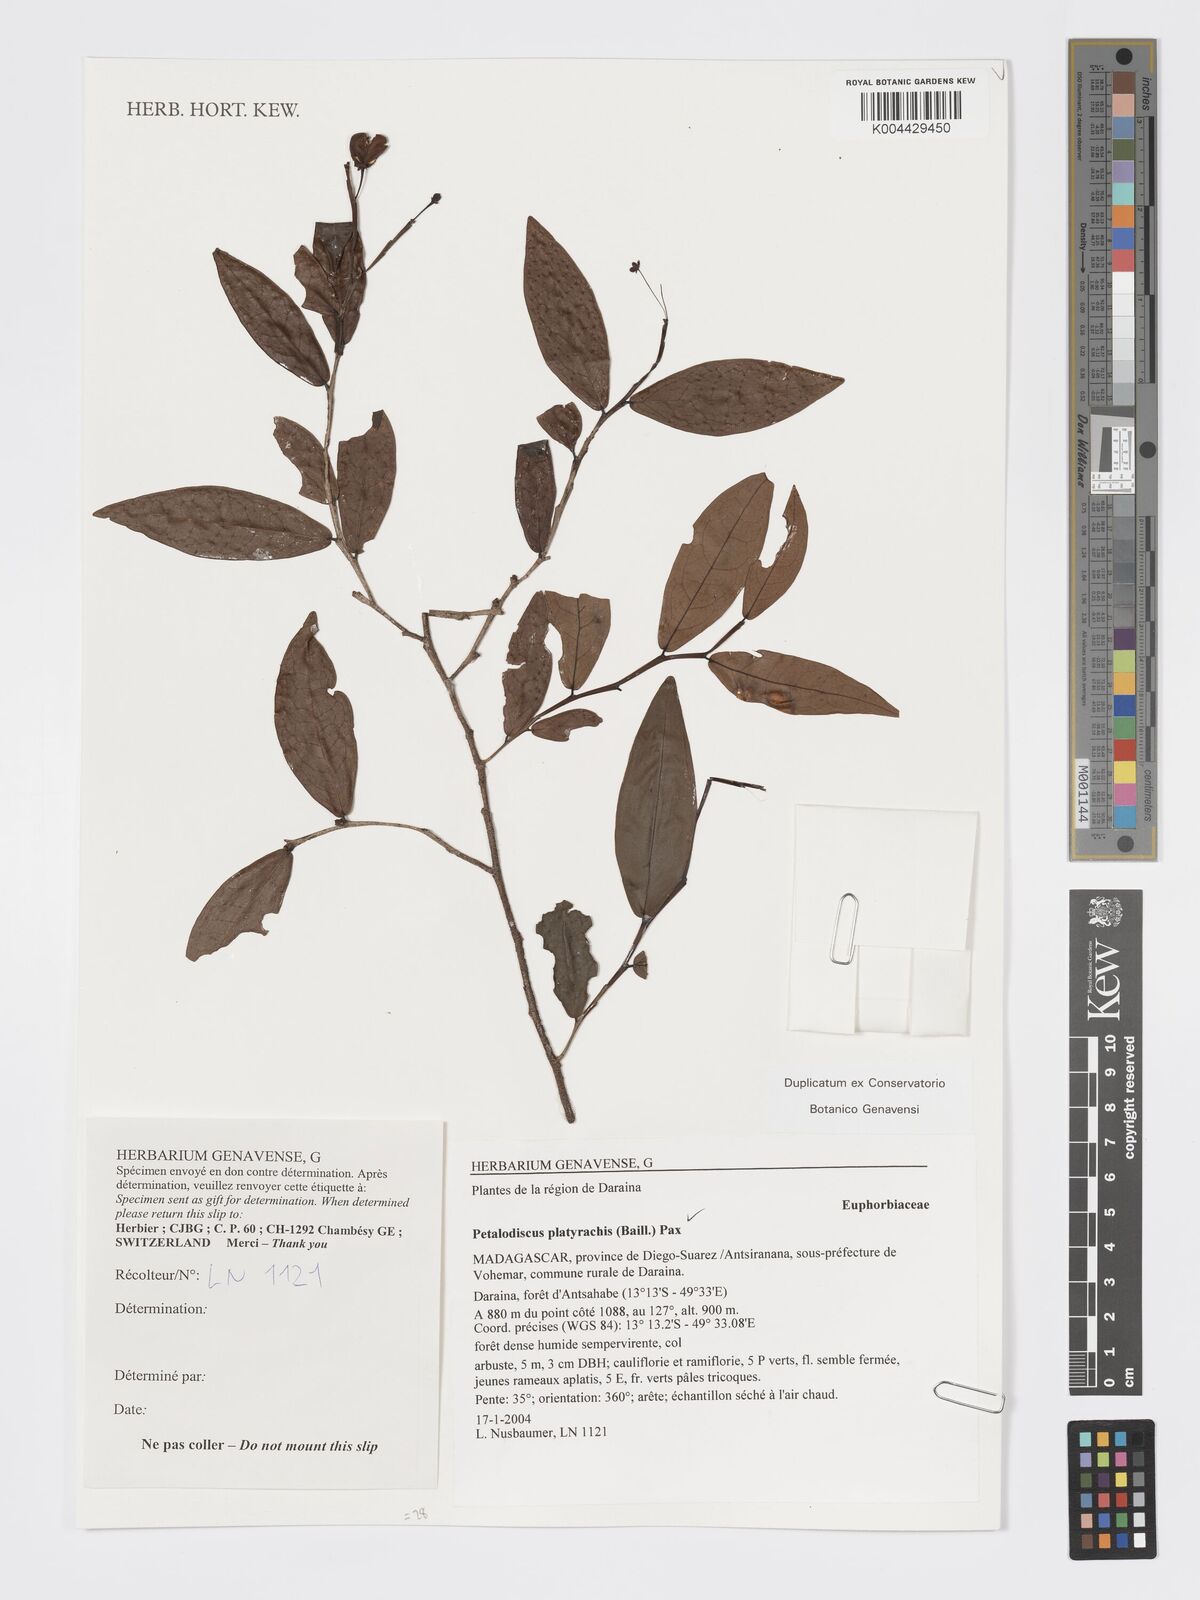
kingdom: Plantae
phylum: Tracheophyta
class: Magnoliopsida
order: Malpighiales
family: Phyllanthaceae
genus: Wielandia
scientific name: Wielandia platyrachis
